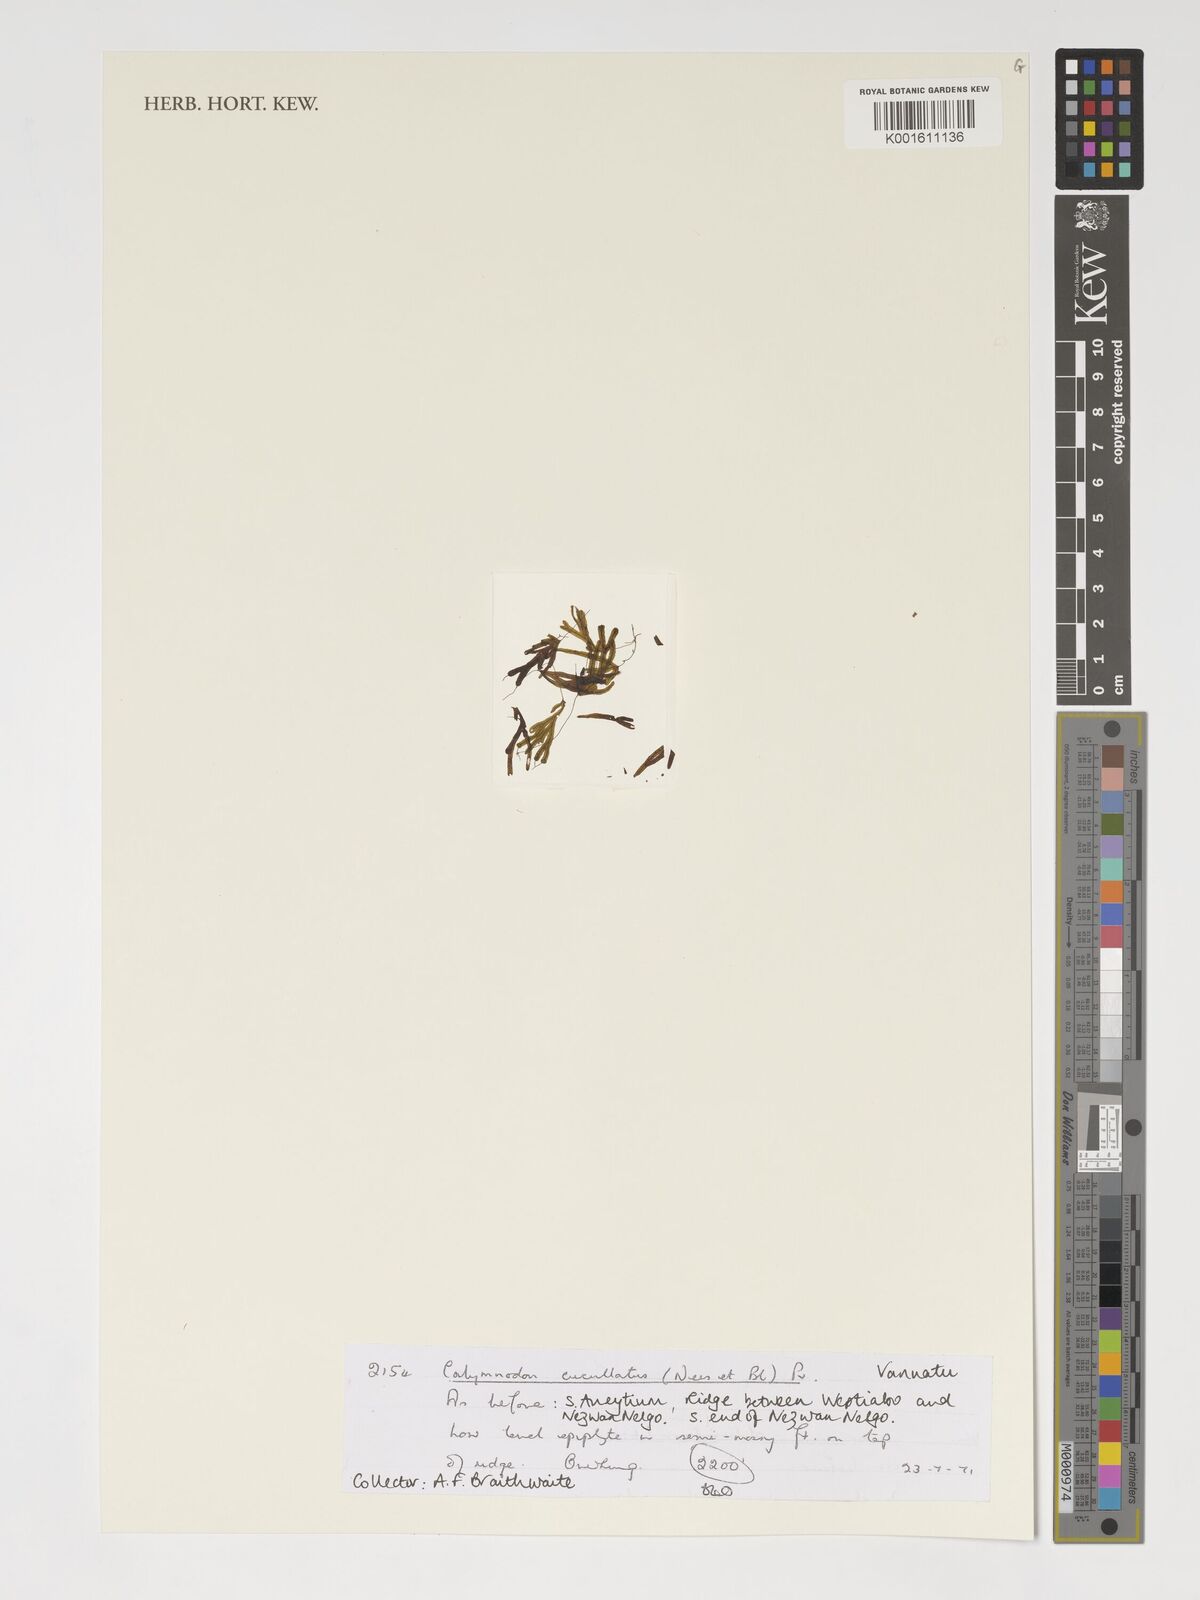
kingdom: Plantae
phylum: Tracheophyta
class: Polypodiopsida
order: Polypodiales
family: Polypodiaceae
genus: Calymmodon
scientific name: Calymmodon cucullatus
